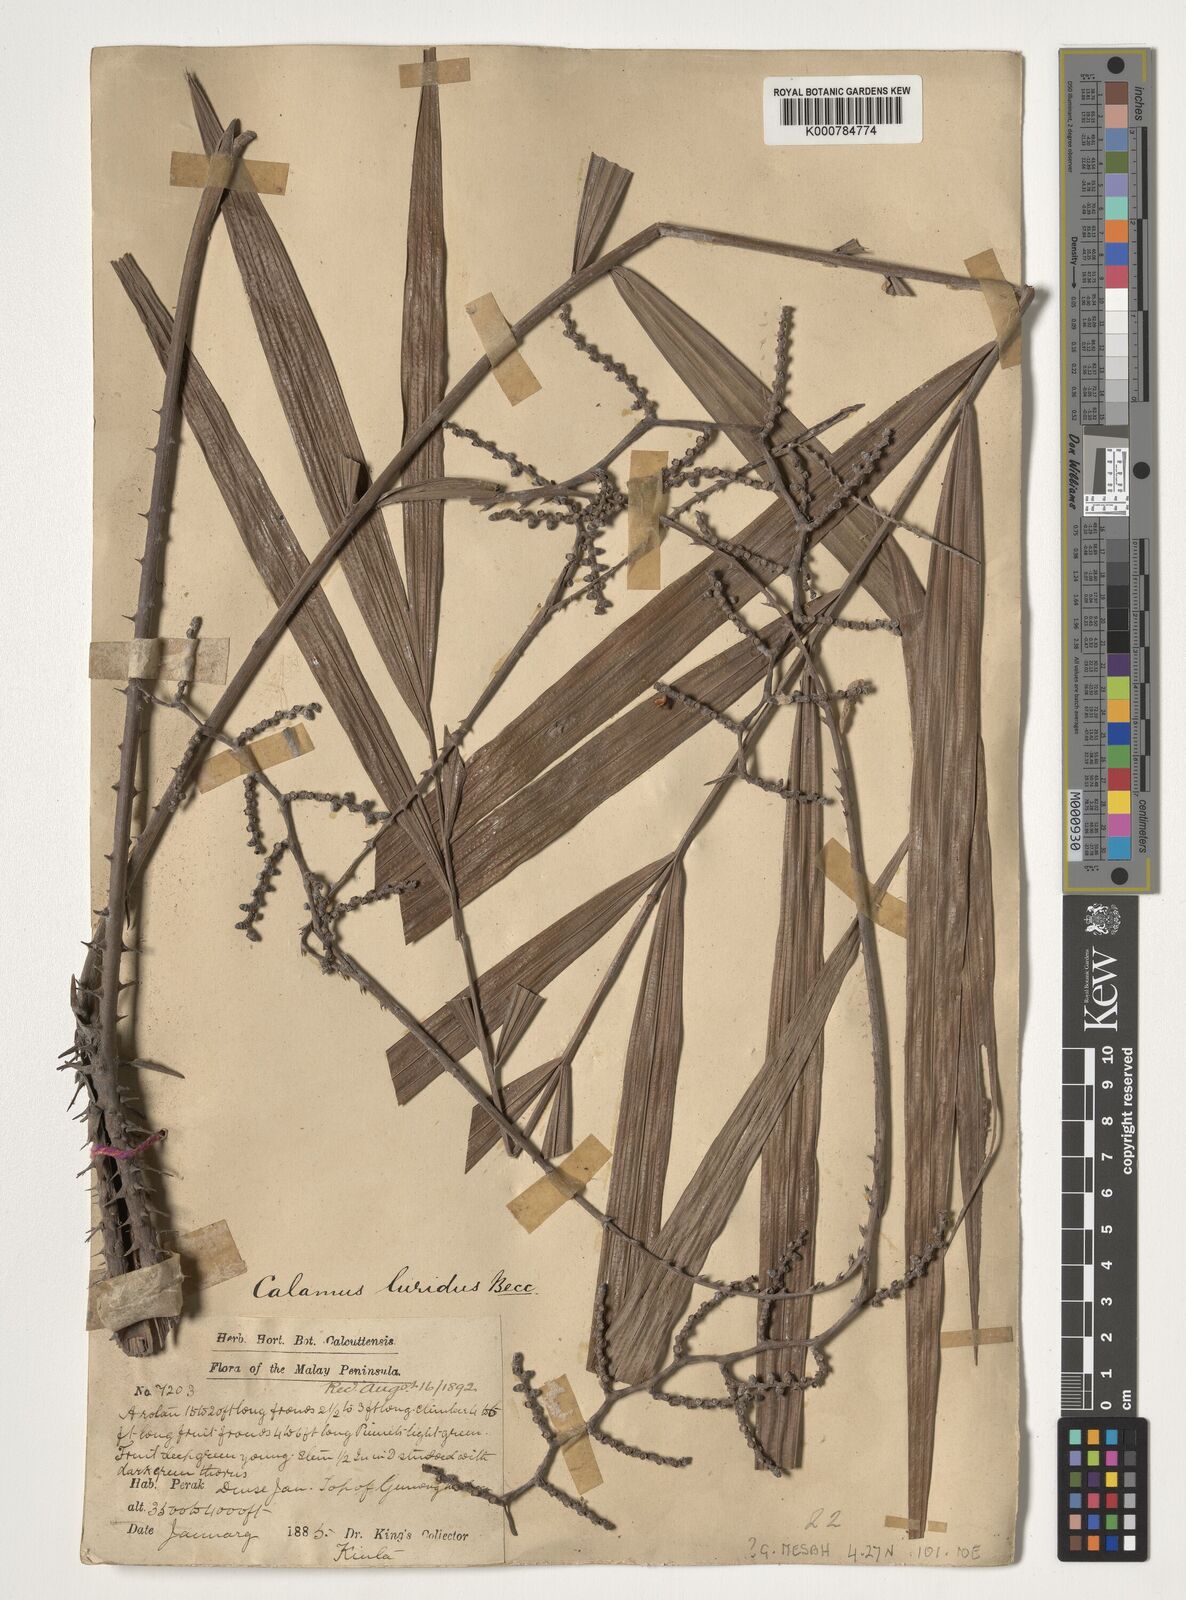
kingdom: Plantae
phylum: Tracheophyta
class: Liliopsida
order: Arecales
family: Arecaceae
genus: Calamus
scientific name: Calamus micranthus
